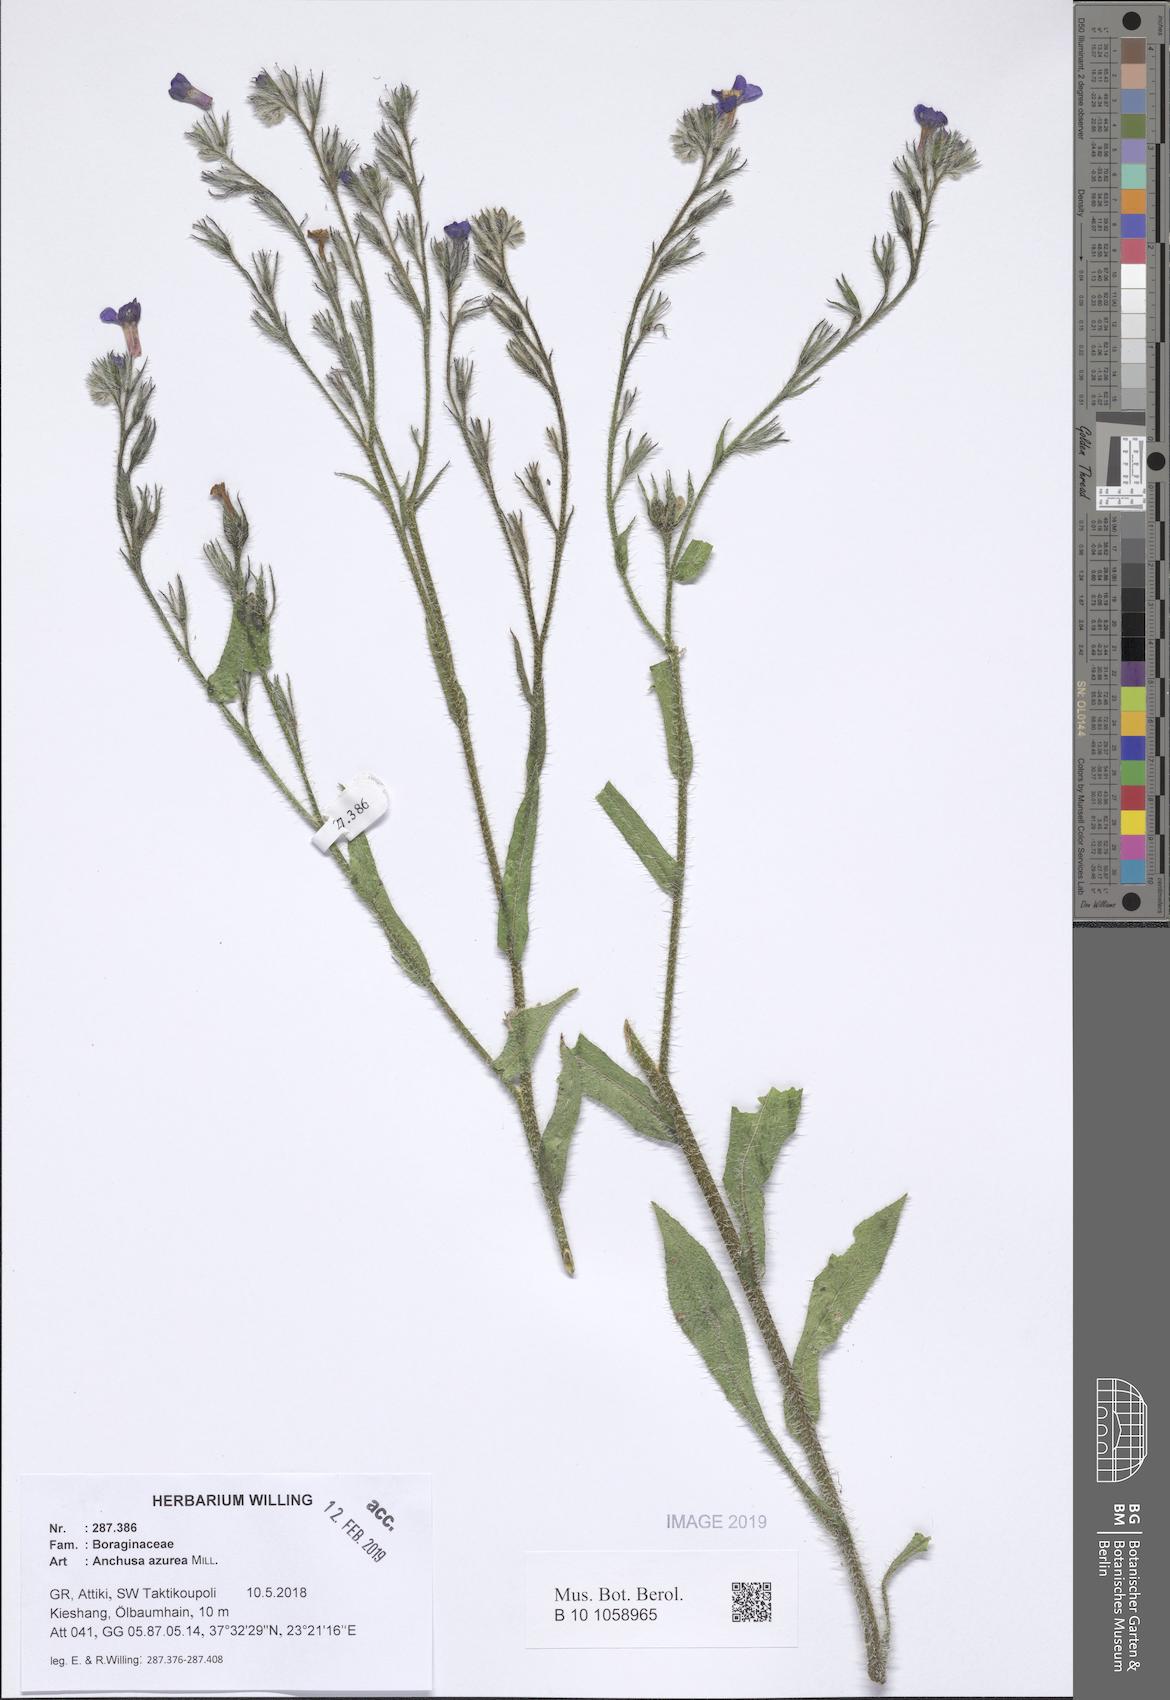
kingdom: Plantae
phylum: Tracheophyta
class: Magnoliopsida
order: Boraginales
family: Boraginaceae
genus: Anchusa
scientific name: Anchusa azurea
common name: Garden anchusa
